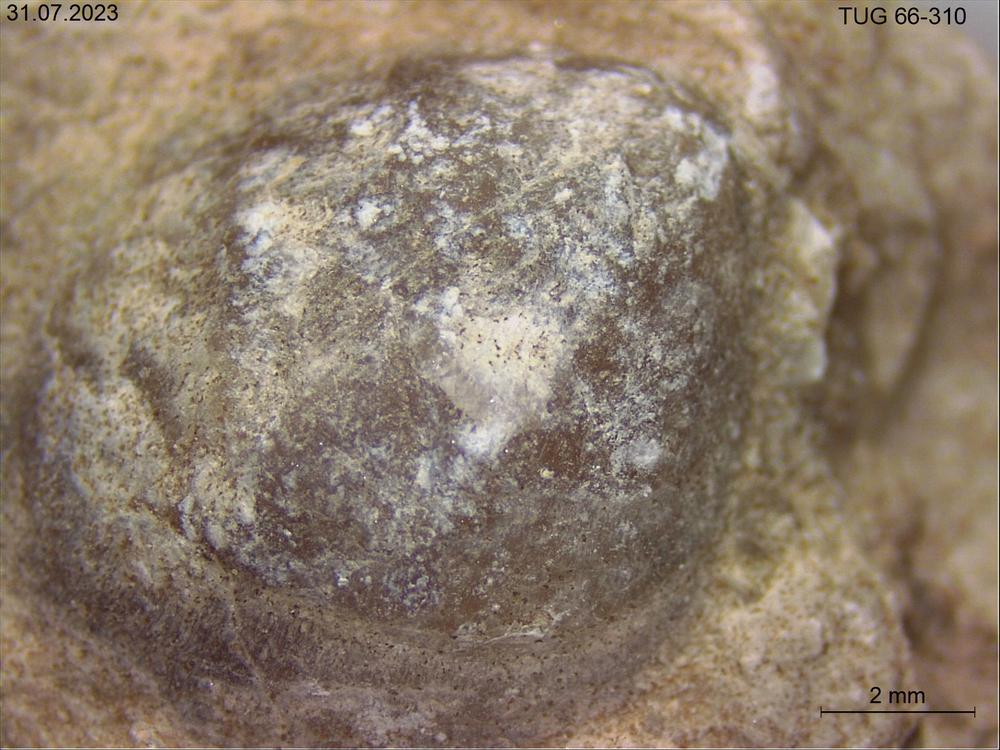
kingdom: Animalia
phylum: Brachiopoda
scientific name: Brachiopoda
